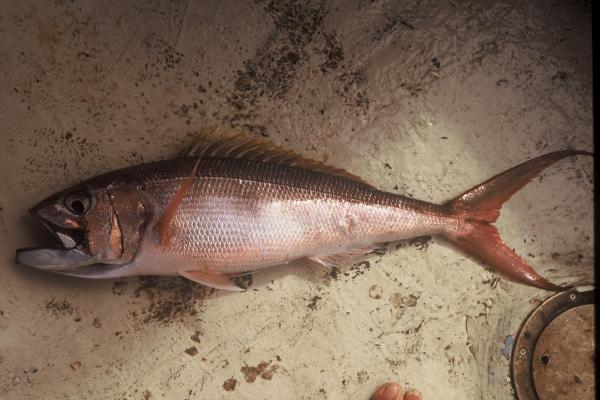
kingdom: Animalia
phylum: Chordata
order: Perciformes
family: Lutjanidae
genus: Aphareus
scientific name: Aphareus rutilans
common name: Rusty jobfish
